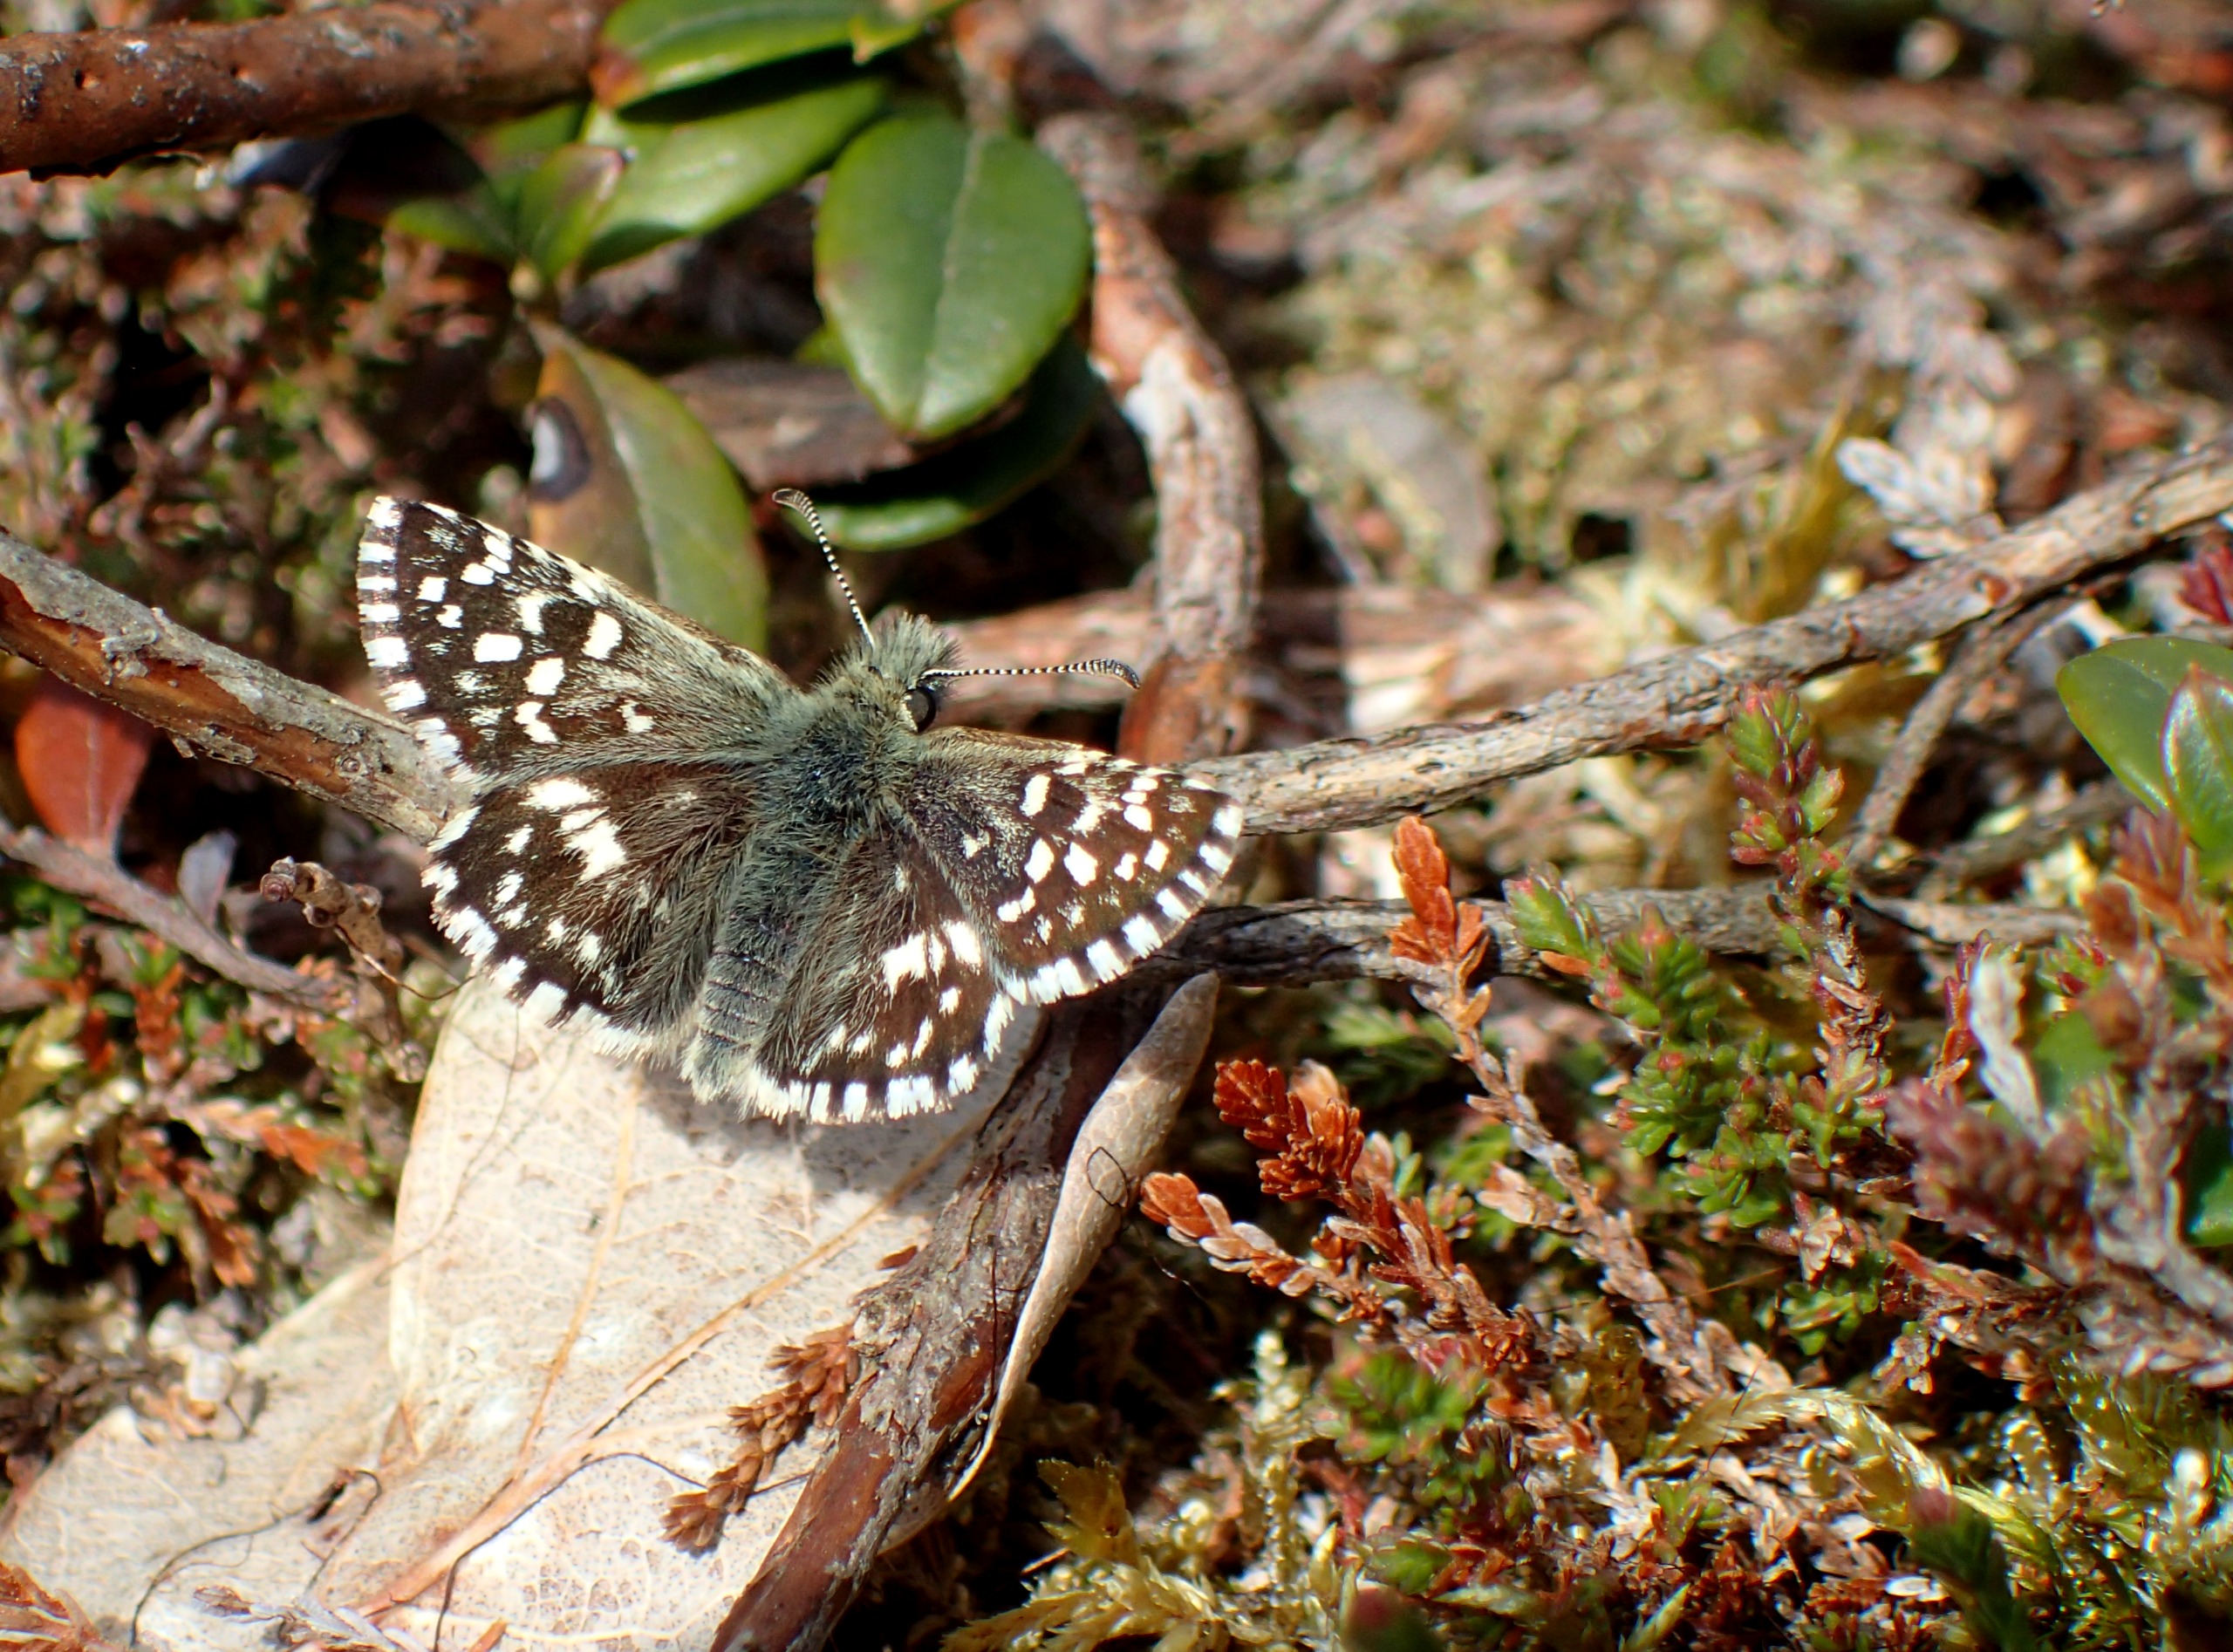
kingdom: Animalia
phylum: Arthropoda
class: Insecta
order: Lepidoptera
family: Hesperiidae
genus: Pyrgus
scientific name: Pyrgus malvae
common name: Spættet bredpande
